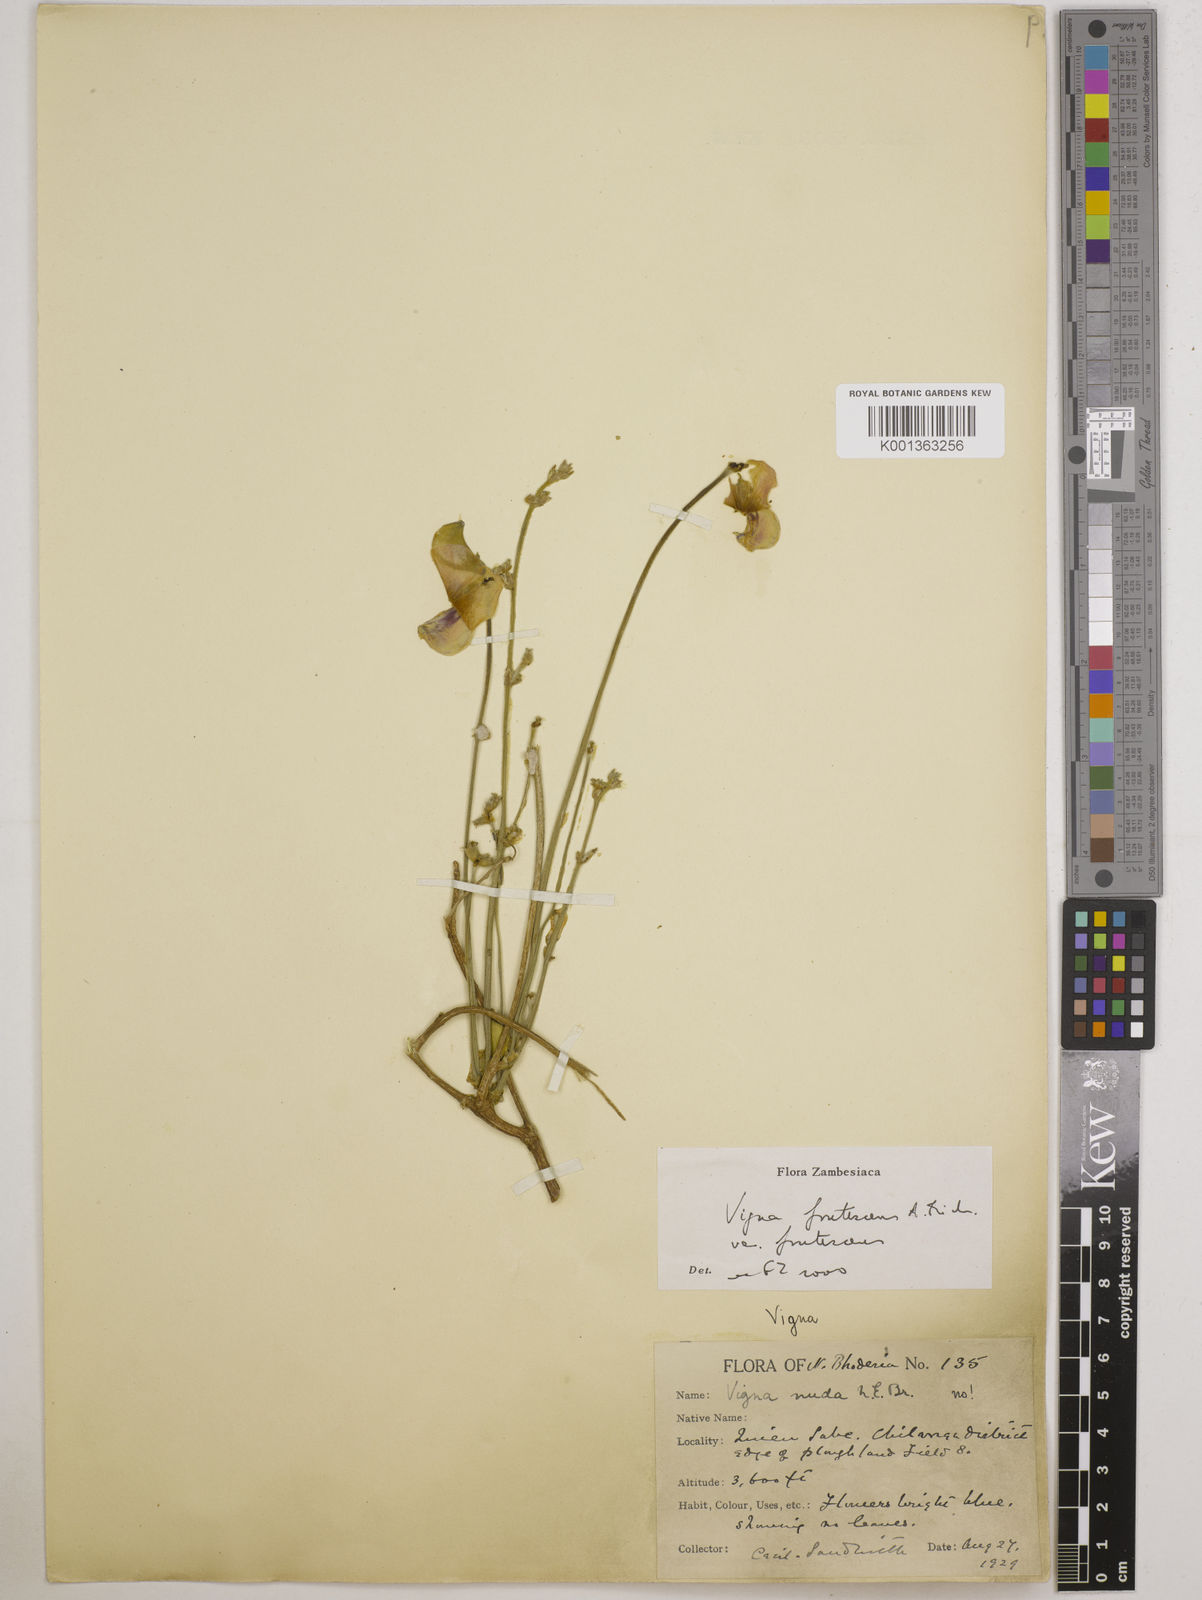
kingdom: Plantae
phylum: Tracheophyta
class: Magnoliopsida
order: Fabales
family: Fabaceae
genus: Vigna
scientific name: Vigna
